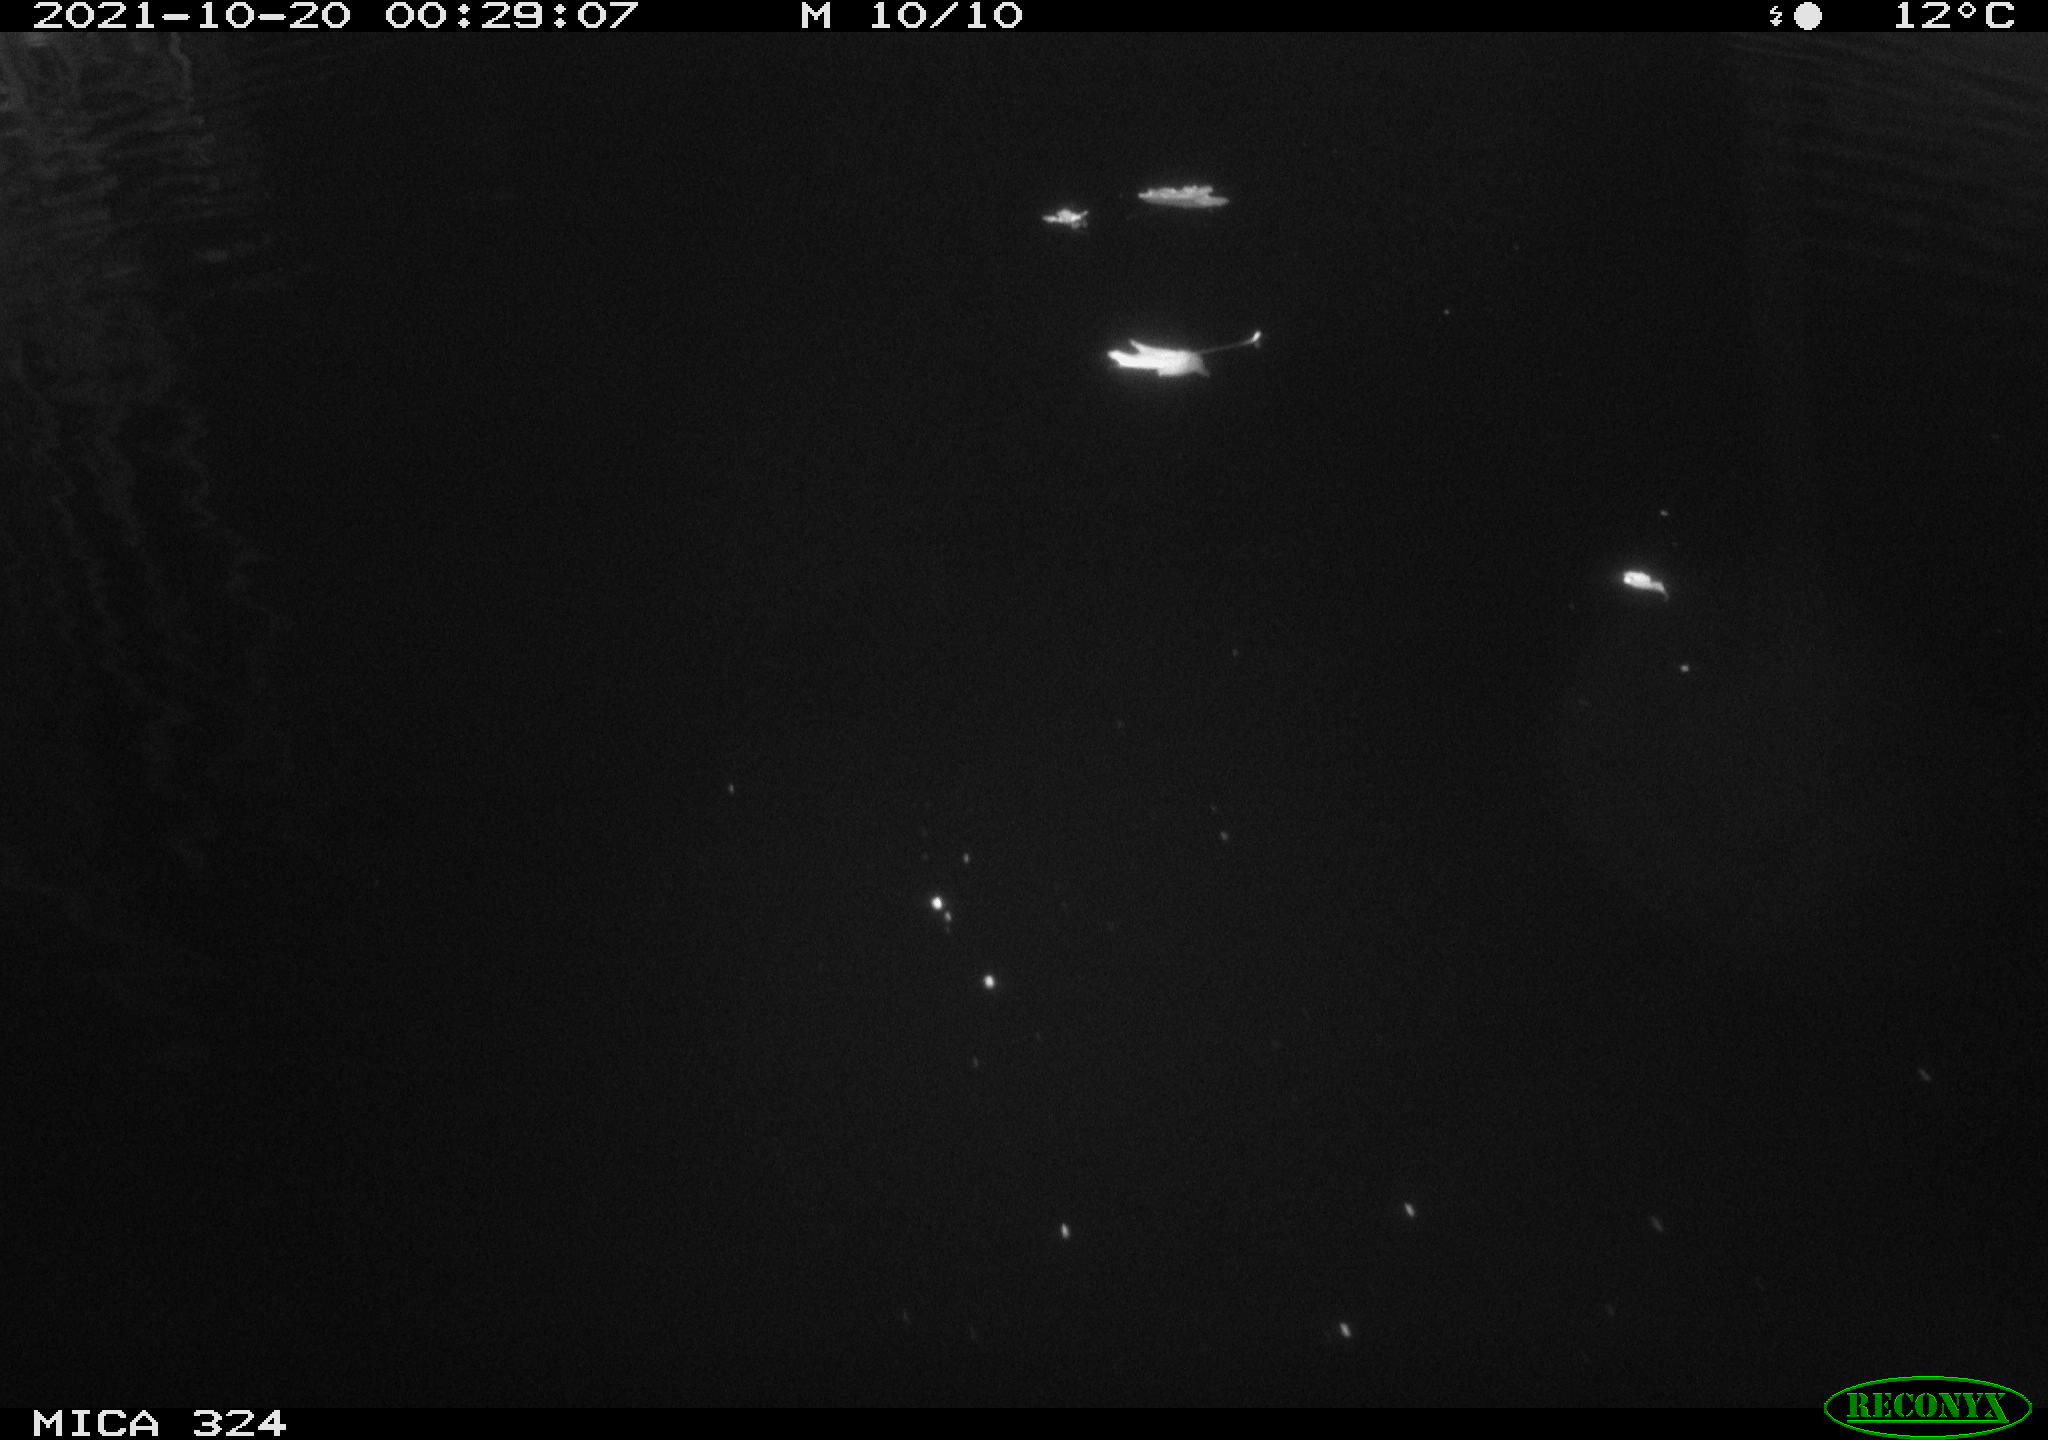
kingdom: Animalia
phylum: Chordata
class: Mammalia
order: Rodentia
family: Cricetidae
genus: Ondatra
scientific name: Ondatra zibethicus
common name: Muskrat
